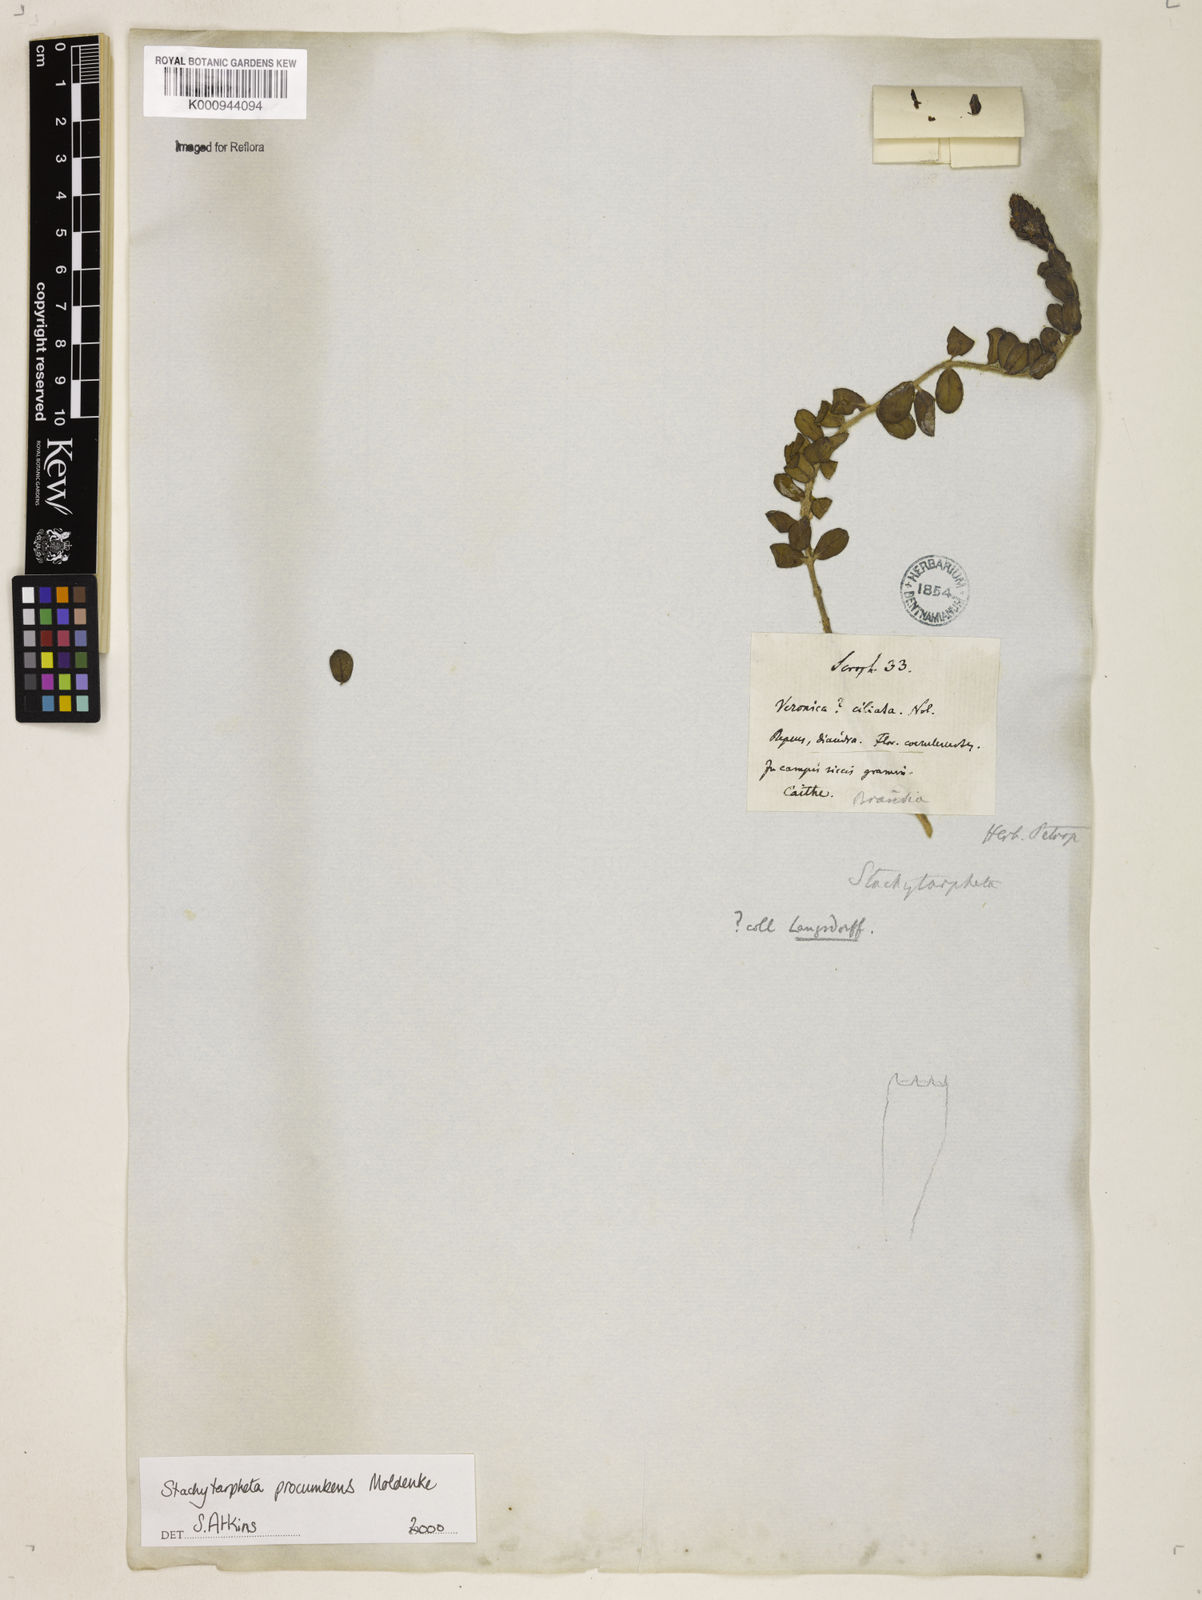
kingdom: Plantae
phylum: Tracheophyta
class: Magnoliopsida
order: Lamiales
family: Verbenaceae
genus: Stachytarpheta
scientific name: Stachytarpheta procumbens
